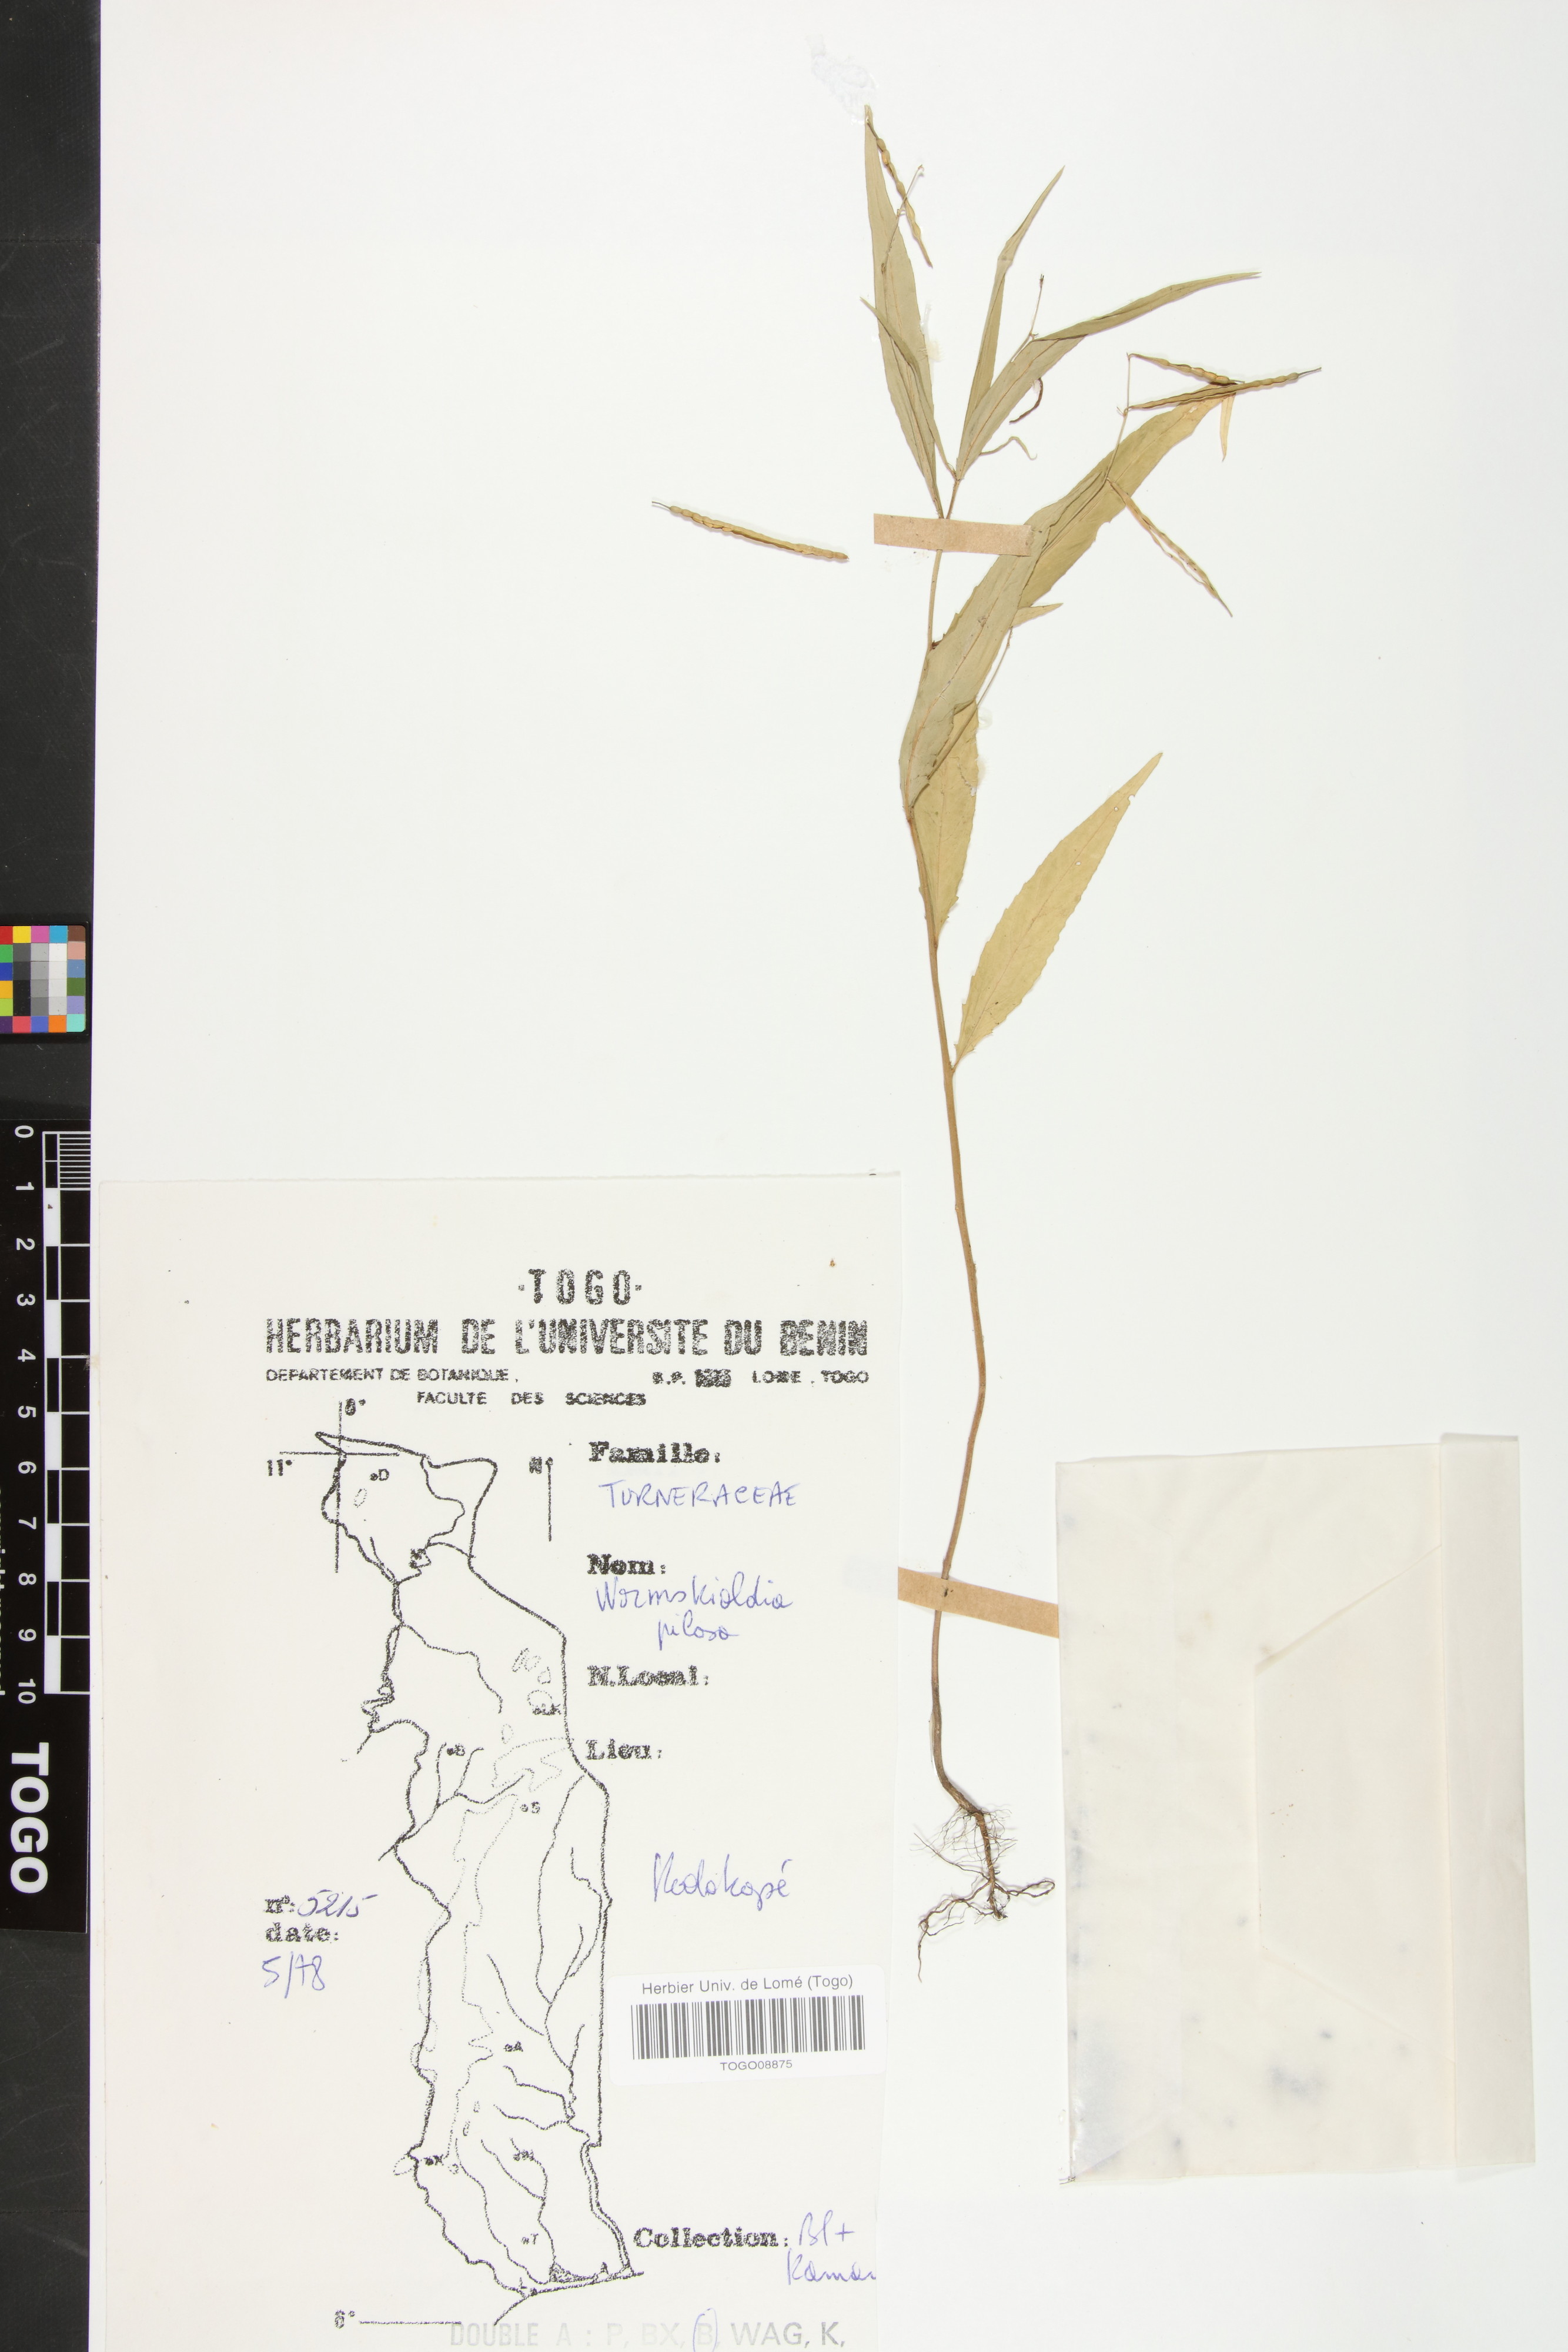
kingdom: Plantae
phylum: Tracheophyta
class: Magnoliopsida
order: Malpighiales
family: Turneraceae
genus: Tricliceras
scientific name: Tricliceras pilosum
